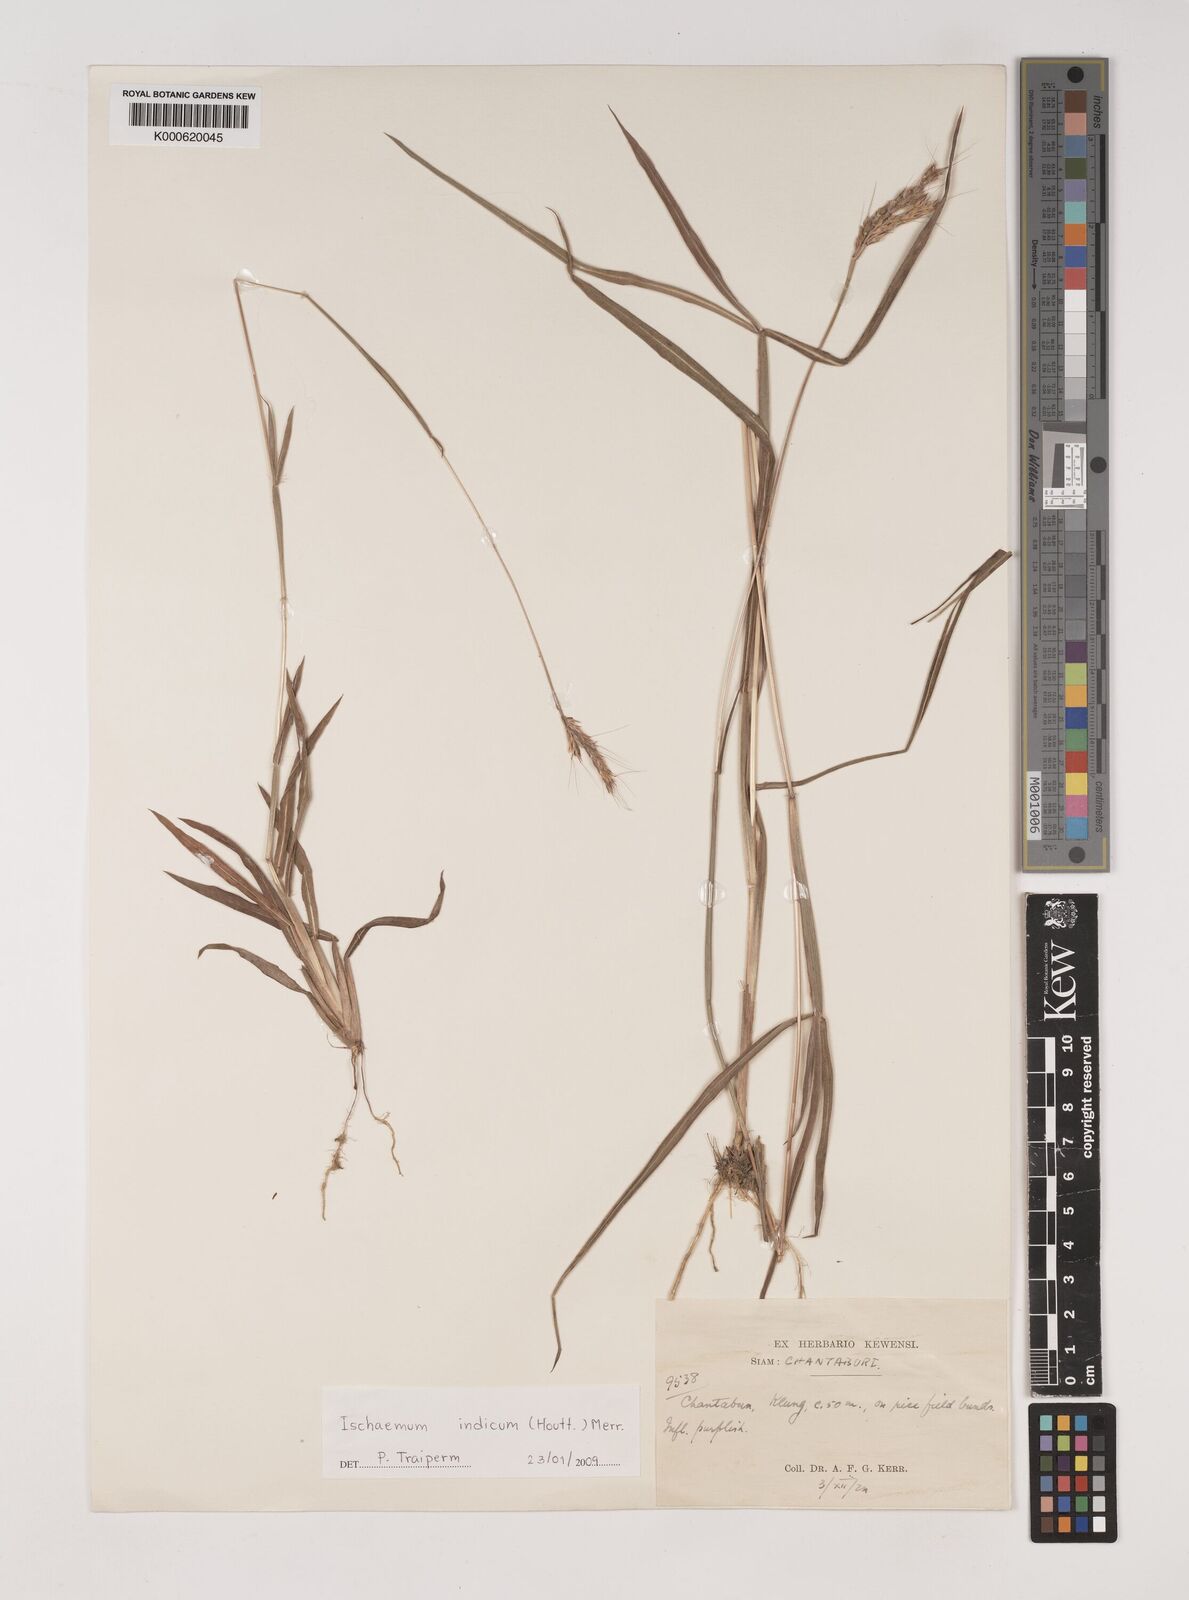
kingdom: Plantae
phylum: Tracheophyta
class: Liliopsida
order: Poales
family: Poaceae
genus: Polytrias
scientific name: Polytrias indica
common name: Indian murainagrass
